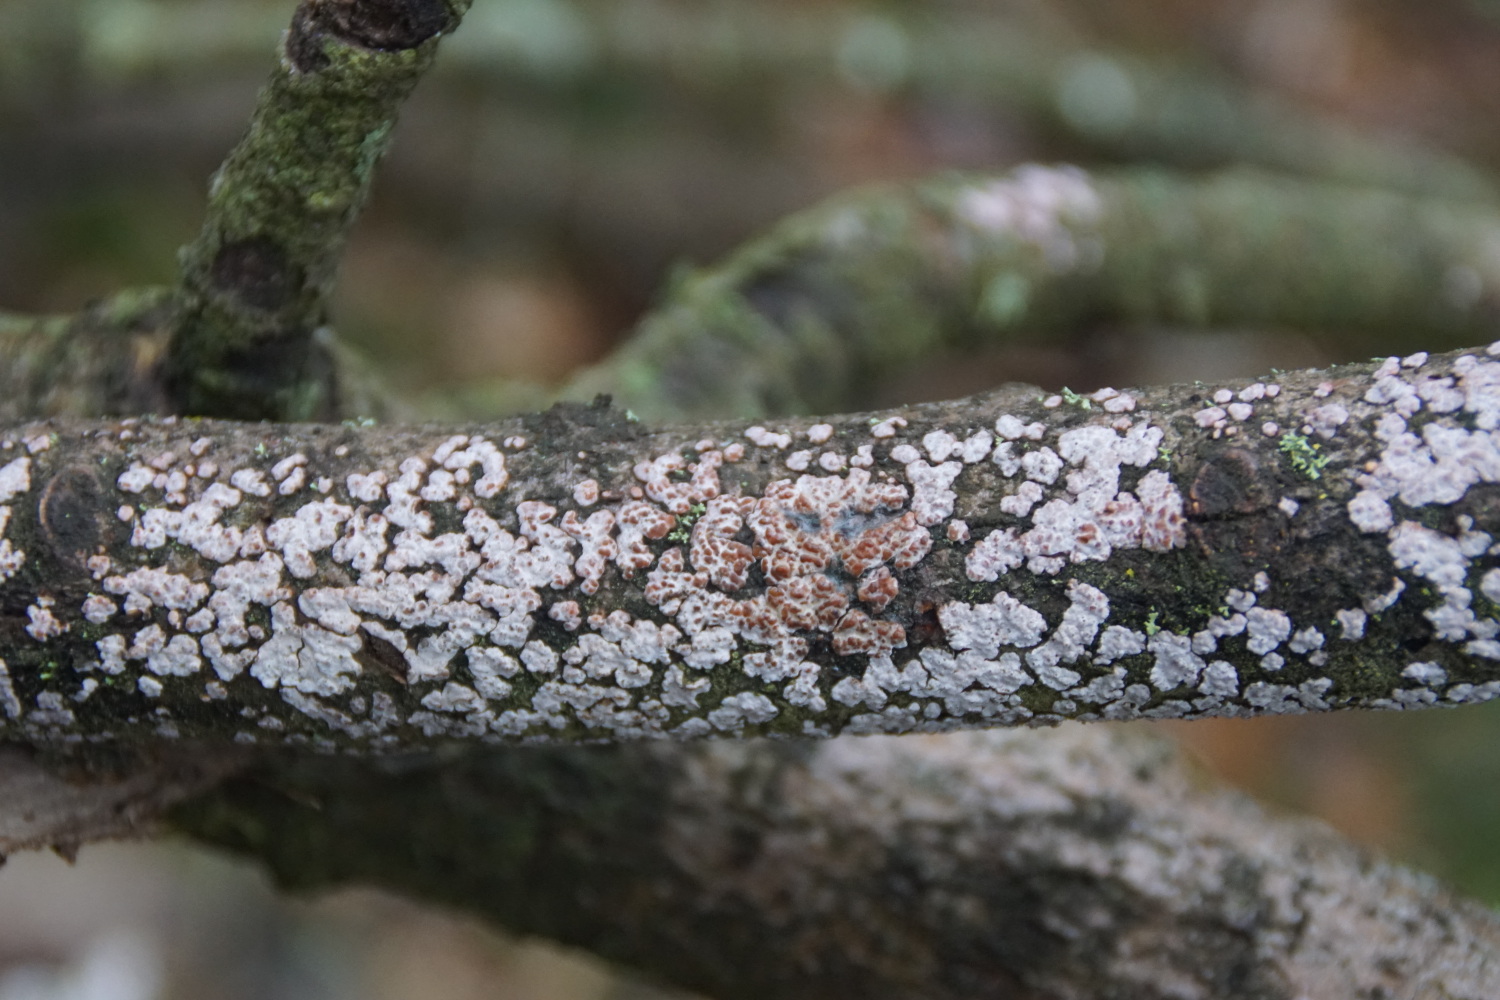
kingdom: Fungi
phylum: Basidiomycota
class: Agaricomycetes
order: Russulales
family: Peniophoraceae
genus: Peniophora
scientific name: Peniophora polygonia
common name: polygon-voksskind
